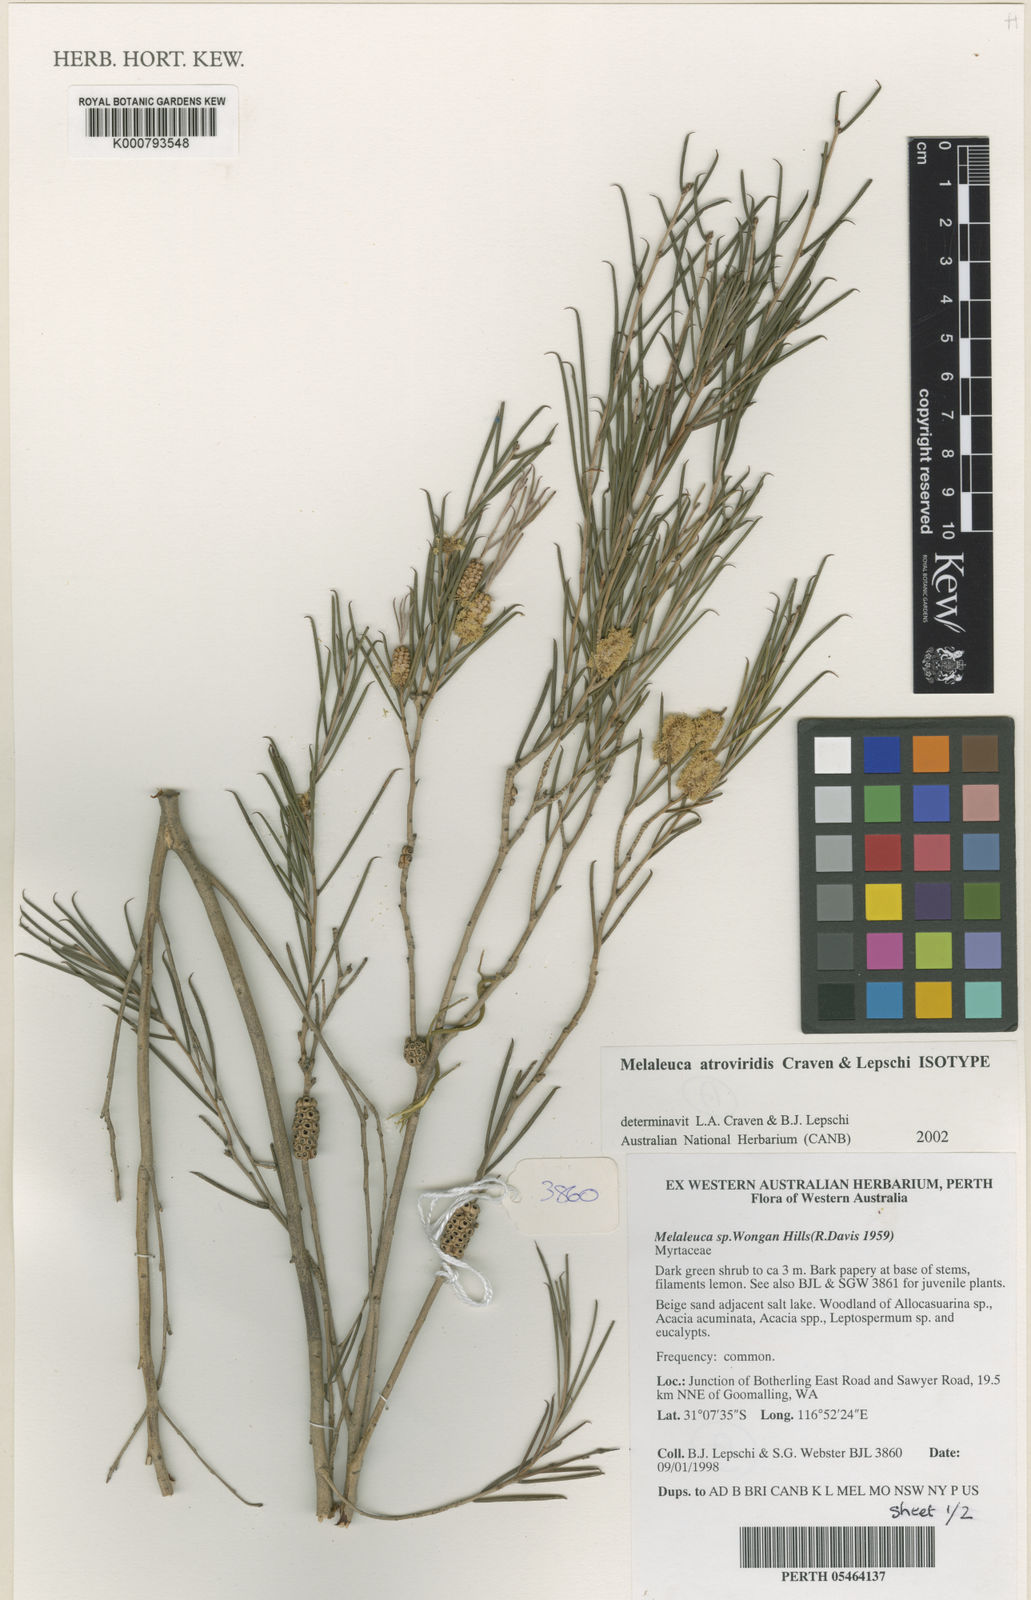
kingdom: Plantae
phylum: Tracheophyta
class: Magnoliopsida
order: Myrtales
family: Myrtaceae
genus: Melaleuca
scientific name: Melaleuca atroviridis
